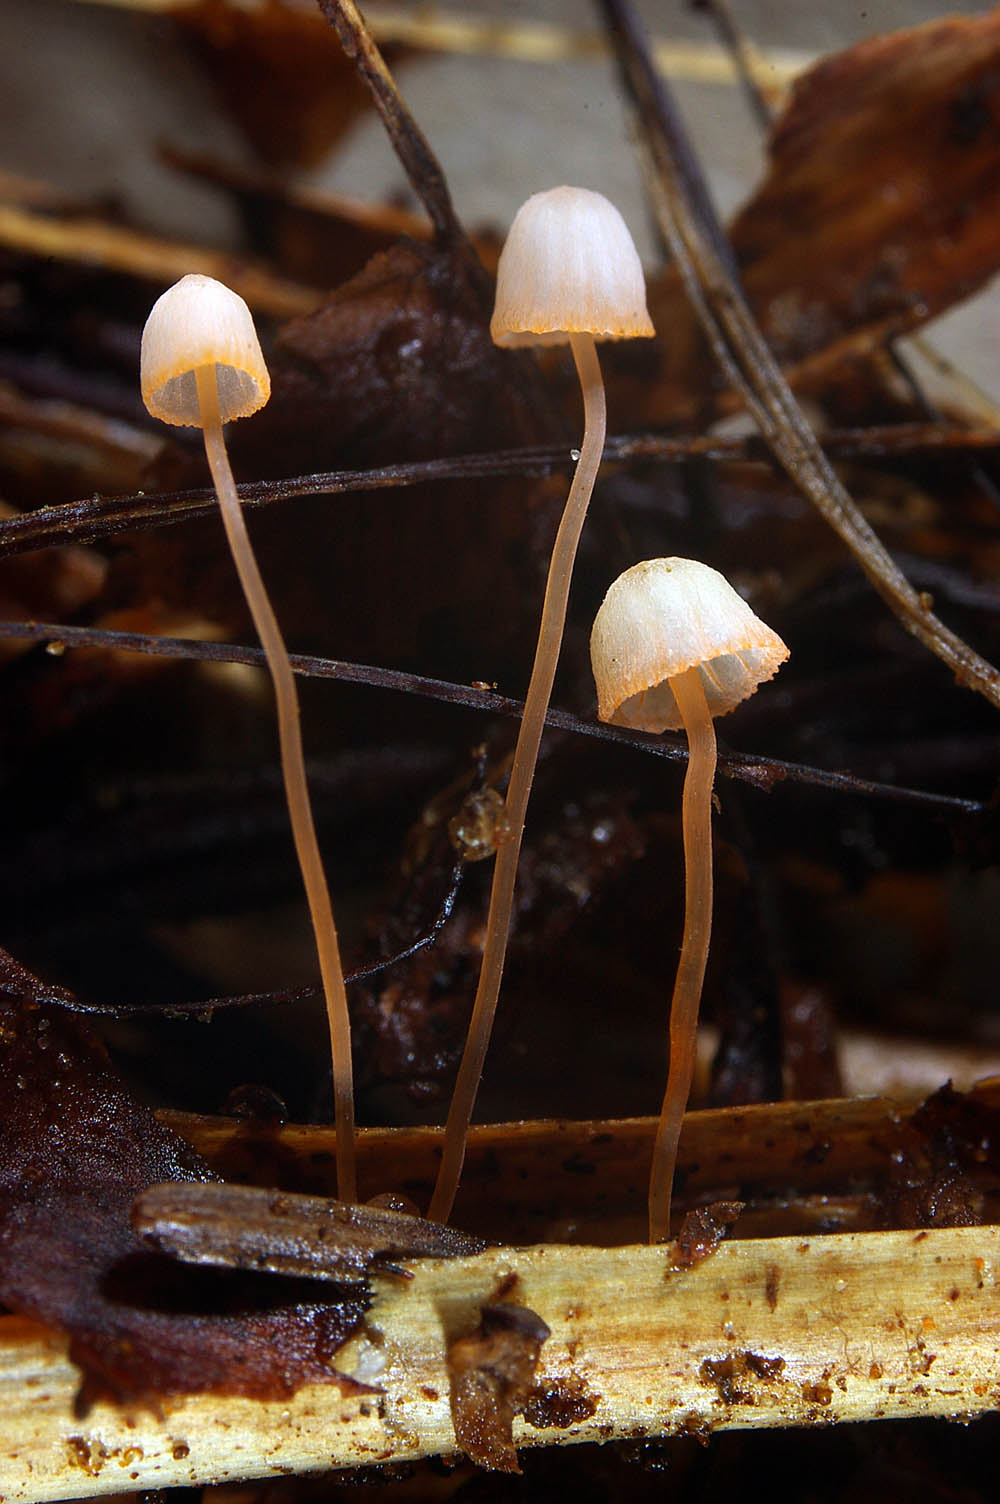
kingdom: Fungi
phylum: Basidiomycota
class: Agaricomycetes
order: Agaricales
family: Mycenaceae
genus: Mycena
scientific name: Mycena pterigena
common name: bregne-huesvamp
